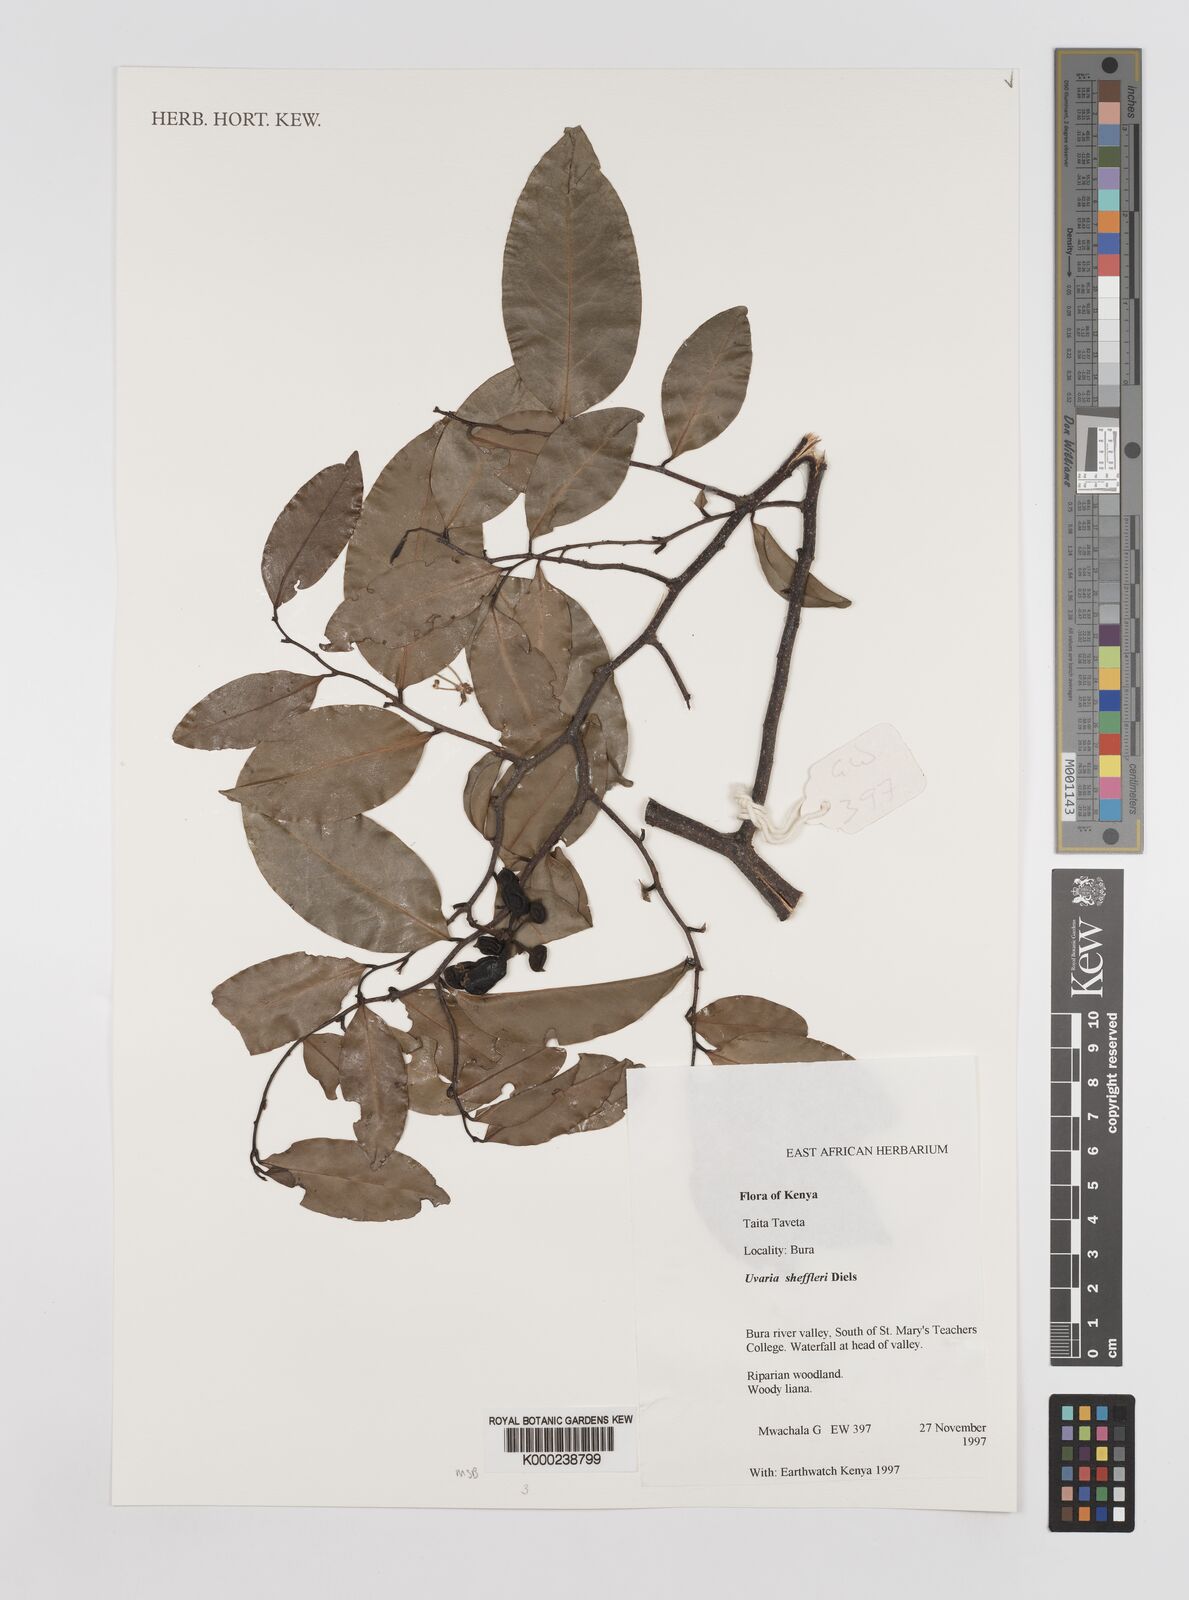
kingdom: Plantae
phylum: Tracheophyta
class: Magnoliopsida
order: Magnoliales
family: Annonaceae
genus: Uvaria
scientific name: Uvaria scheffleri
